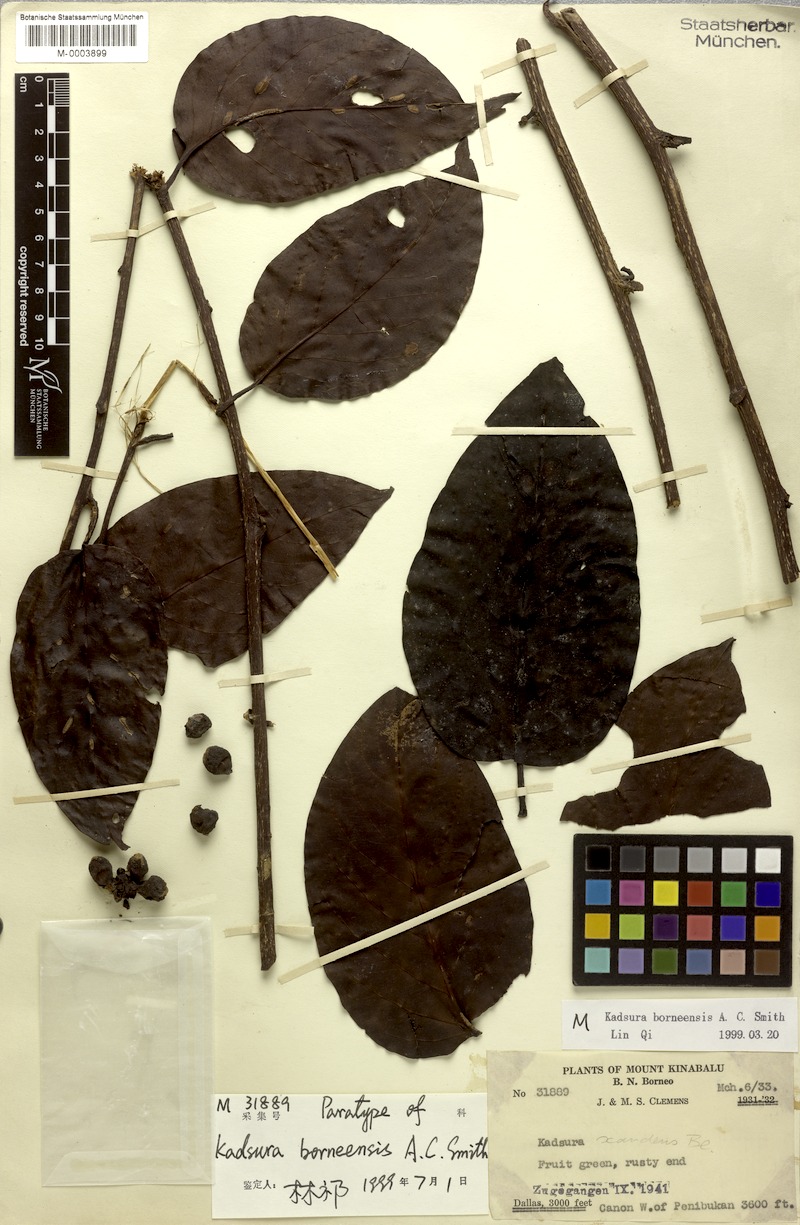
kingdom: Plantae
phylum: Tracheophyta
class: Magnoliopsida
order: Austrobaileyales
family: Schisandraceae
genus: Kadsura
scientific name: Kadsura borneensis
